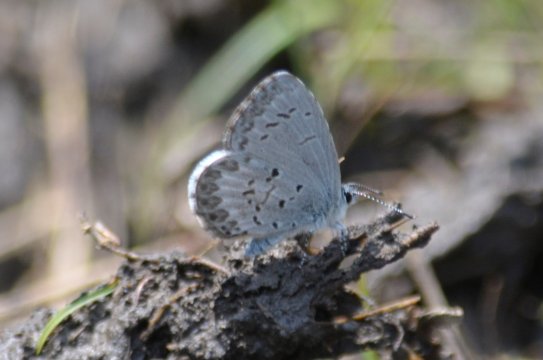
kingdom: Animalia
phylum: Arthropoda
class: Insecta
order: Lepidoptera
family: Lycaenidae
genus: Celastrina
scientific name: Celastrina lucia
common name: Northern Spring Azure
